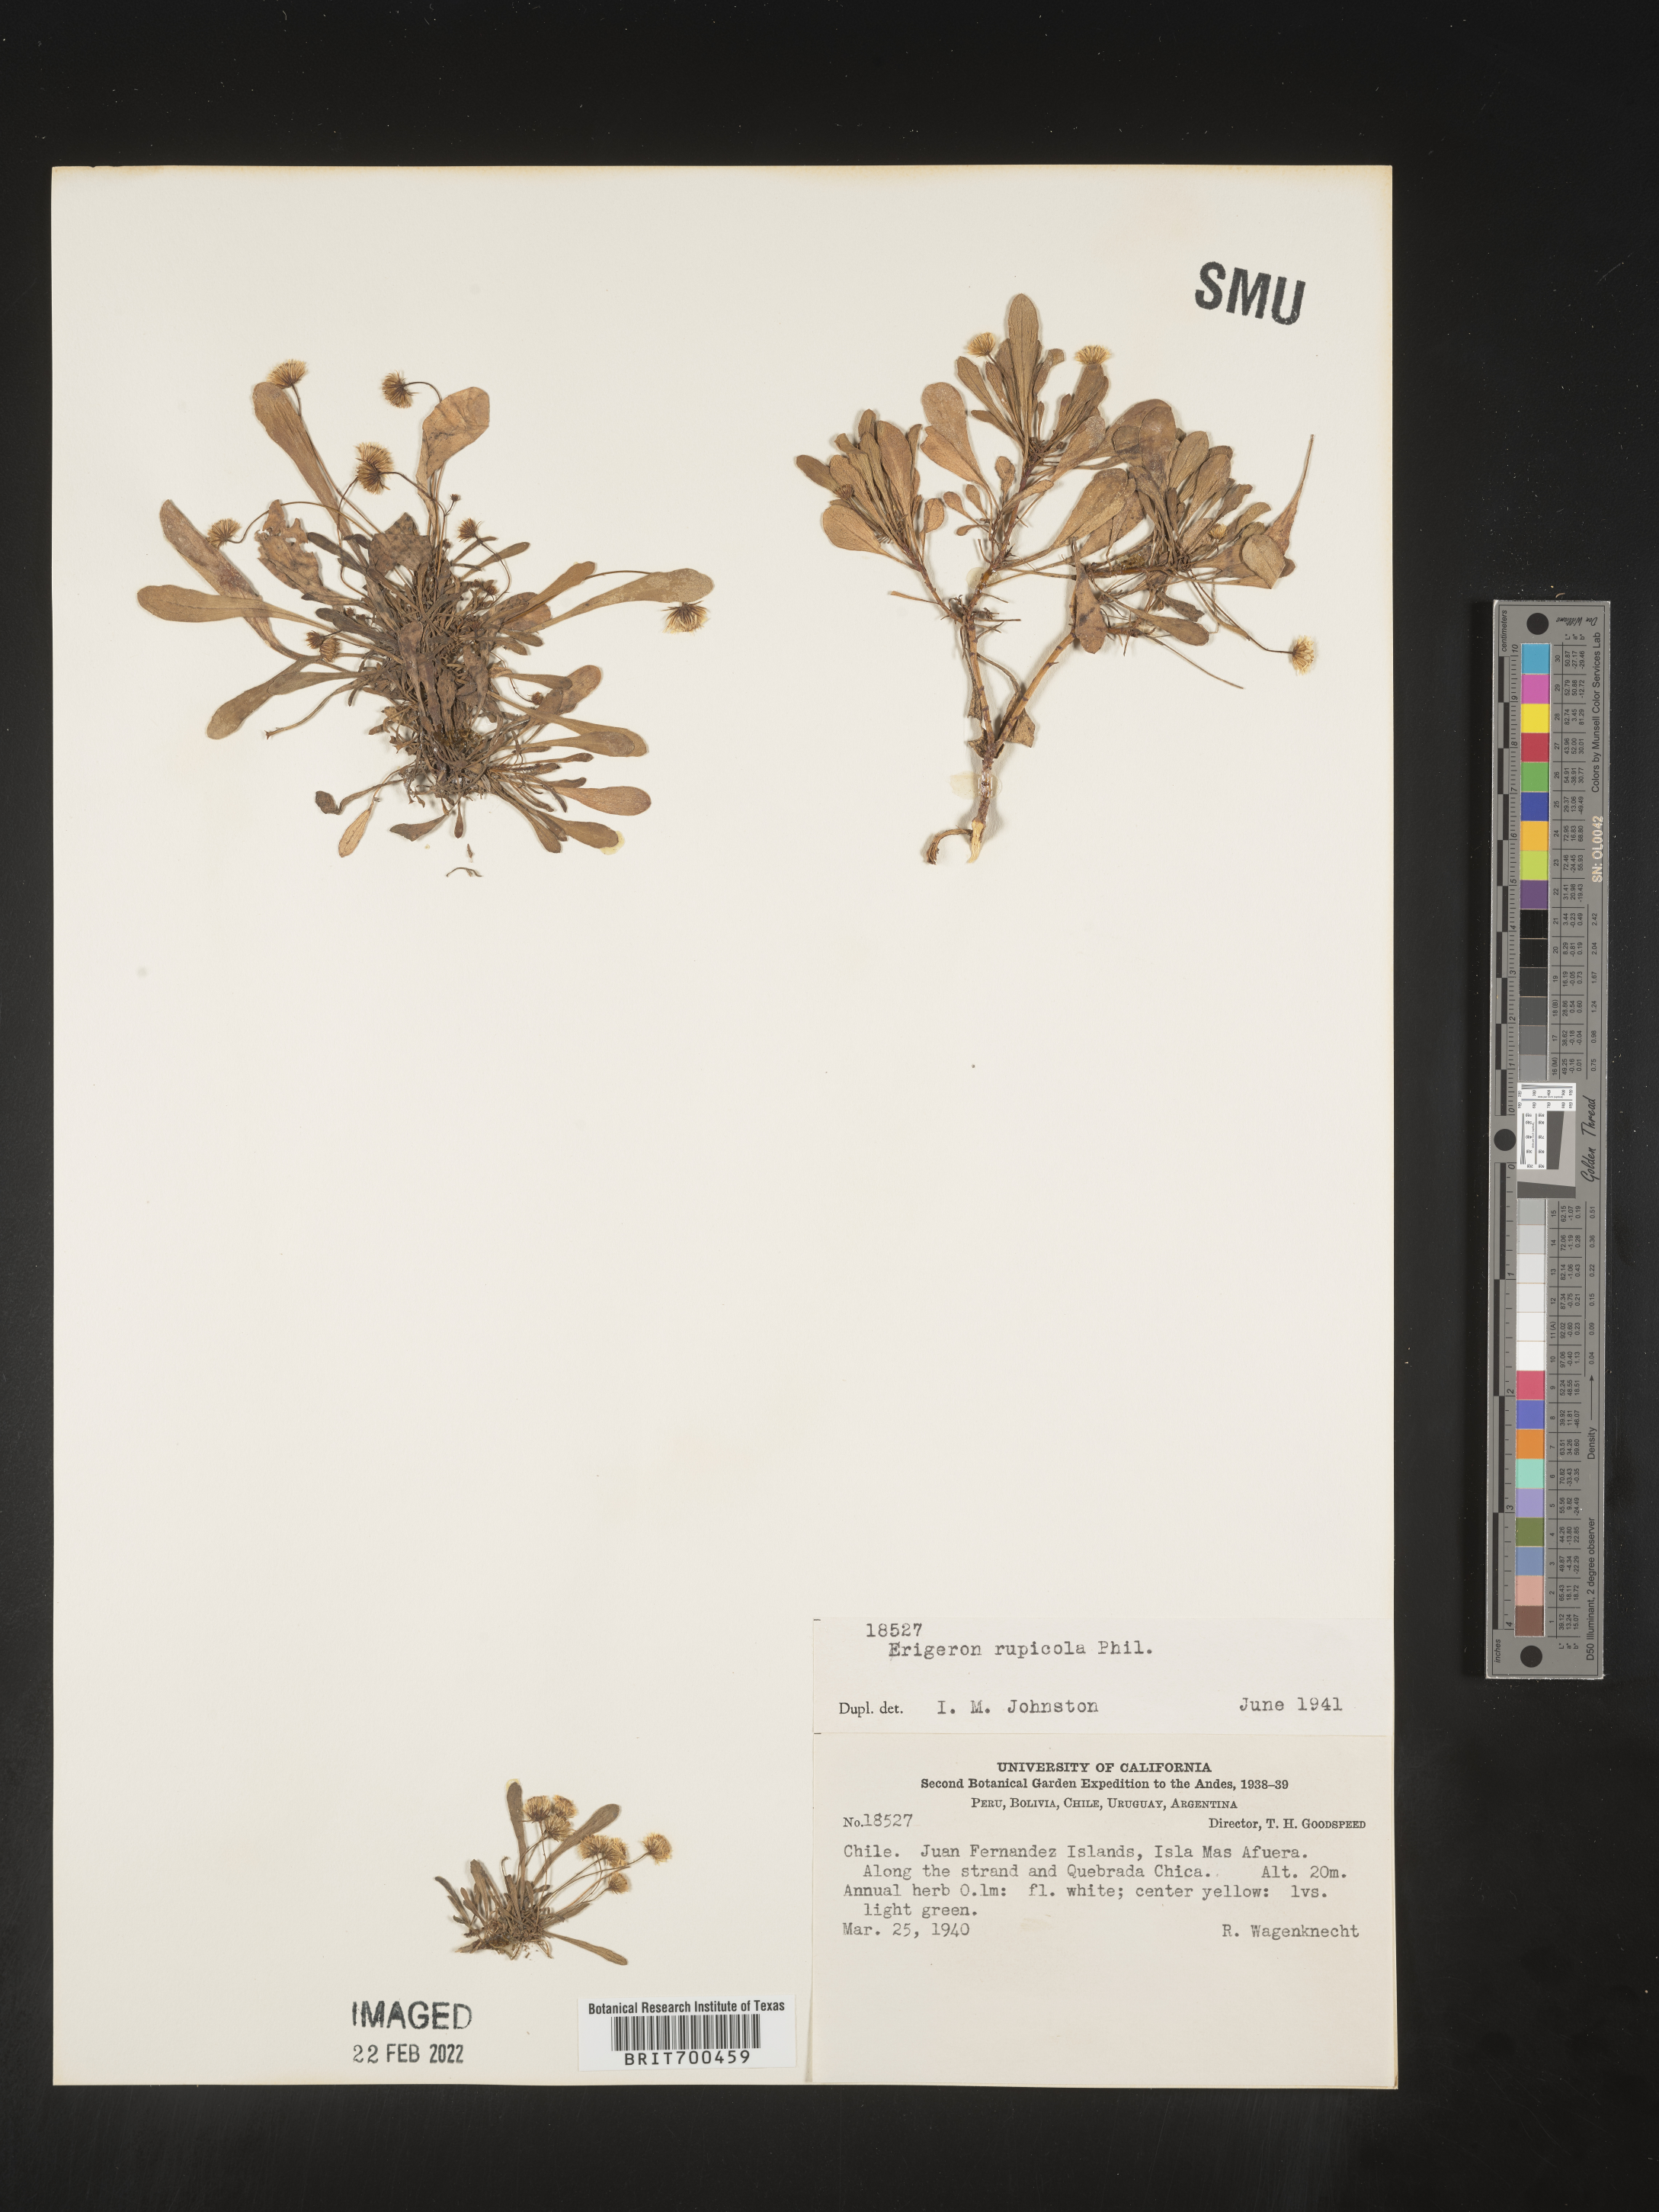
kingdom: Plantae
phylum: Tracheophyta
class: Magnoliopsida
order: Asterales
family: Asteraceae
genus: Erigeron
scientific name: Erigeron
